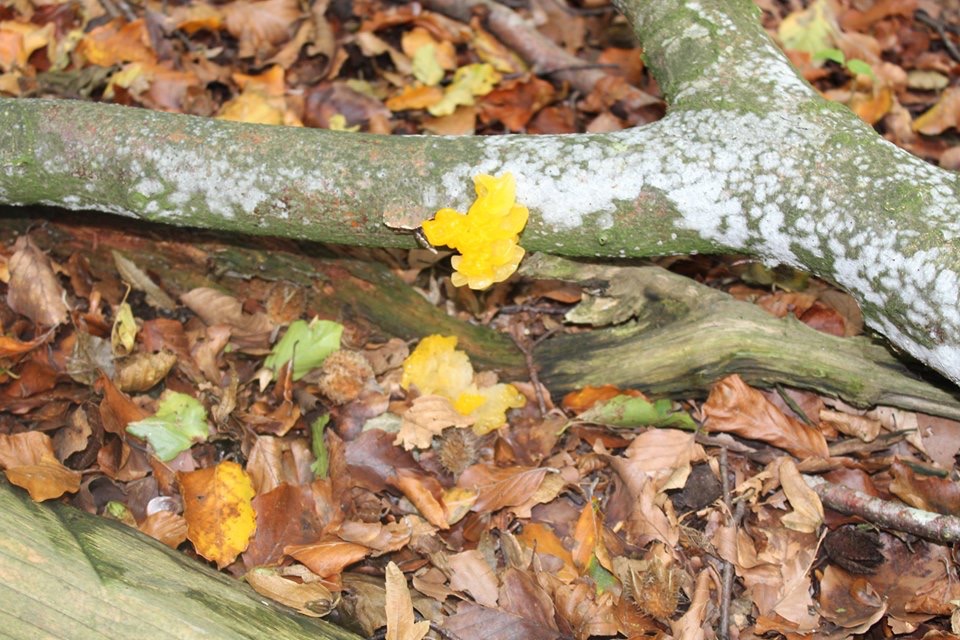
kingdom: Fungi
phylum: Basidiomycota
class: Tremellomycetes
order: Tremellales
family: Tremellaceae
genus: Tremella
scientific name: Tremella mesenterica
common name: gul bævresvamp
